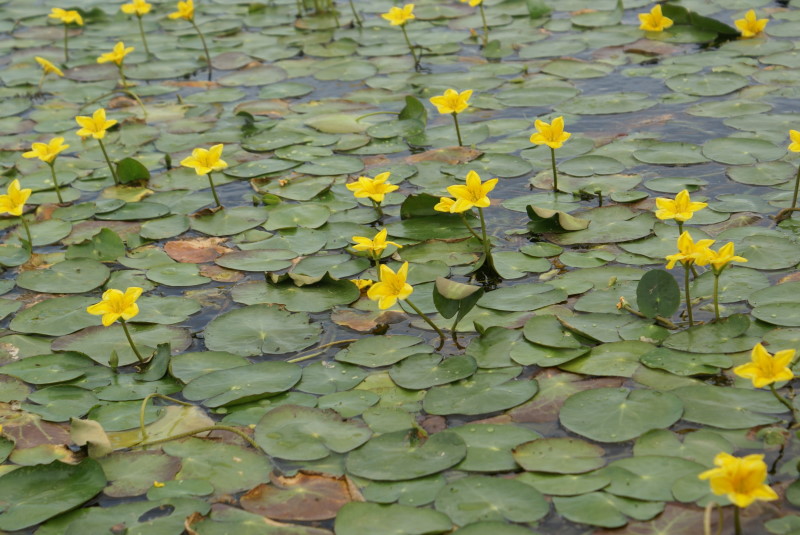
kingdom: Plantae
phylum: Tracheophyta
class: Magnoliopsida
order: Asterales
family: Menyanthaceae
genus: Nymphoides
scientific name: Nymphoides peltata
